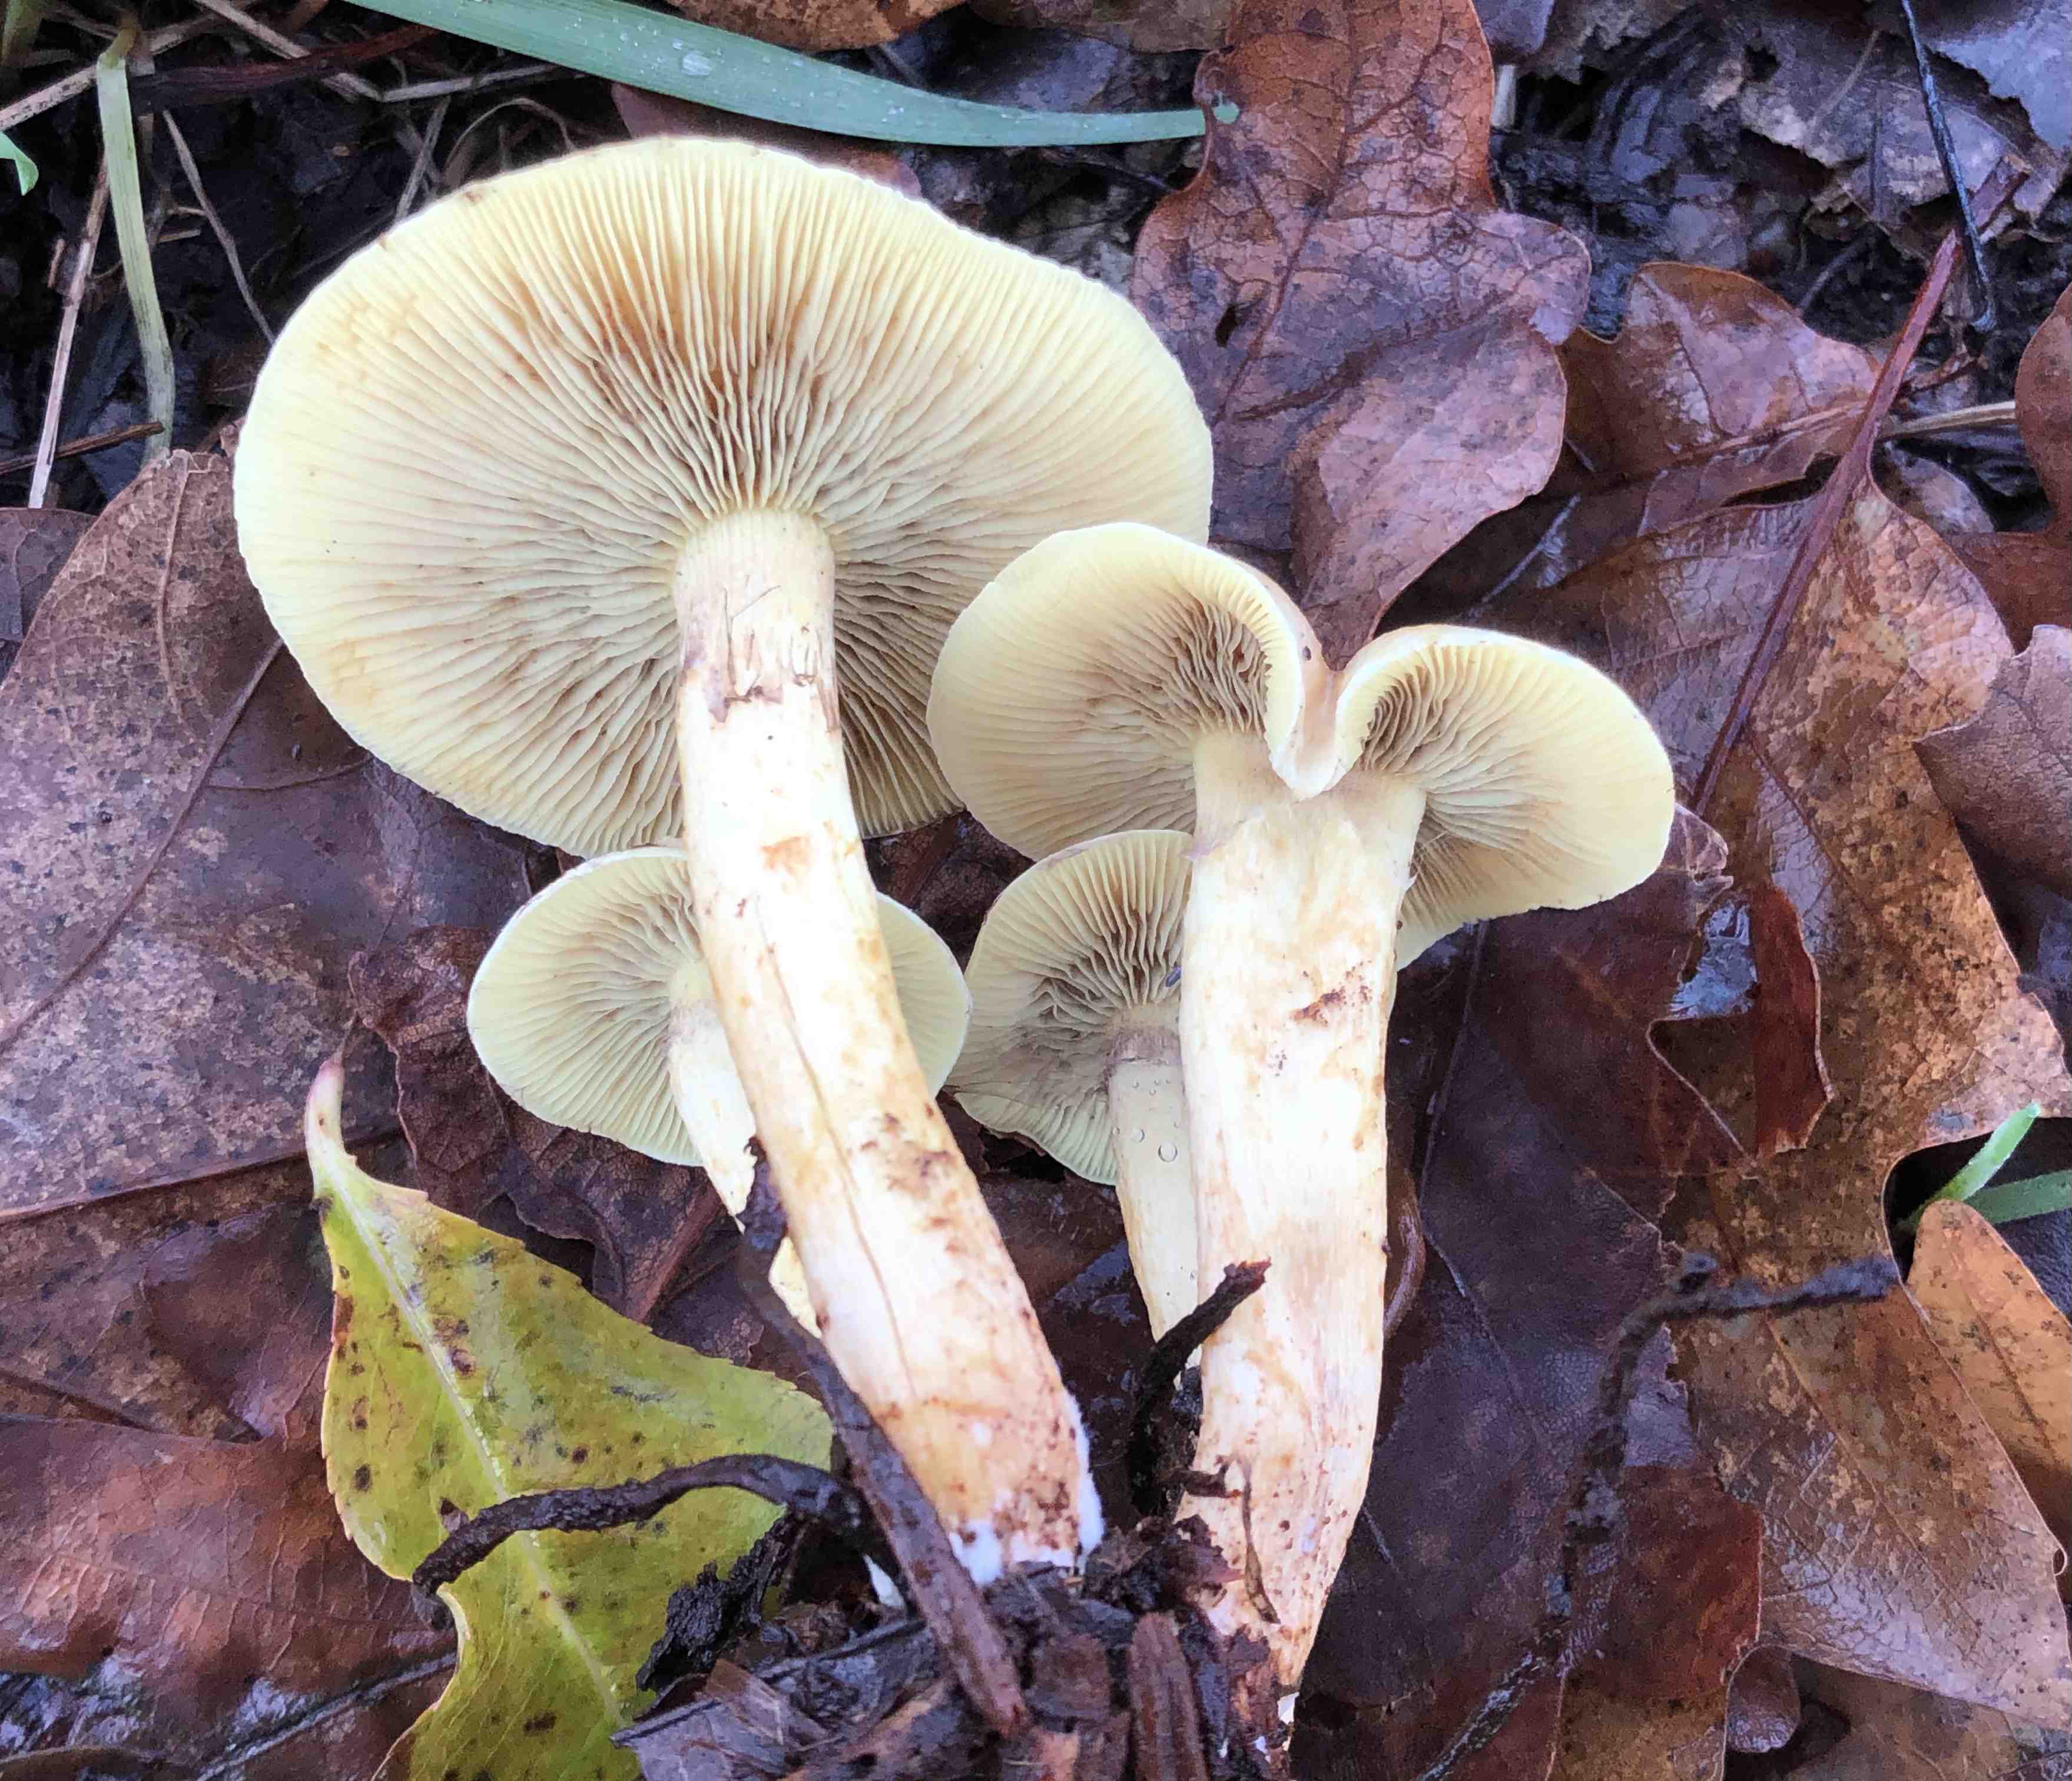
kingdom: Fungi
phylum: Basidiomycota
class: Agaricomycetes
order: Agaricales
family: Strophariaceae
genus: Hypholoma
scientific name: Hypholoma lateritium
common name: teglrød svovlhat
